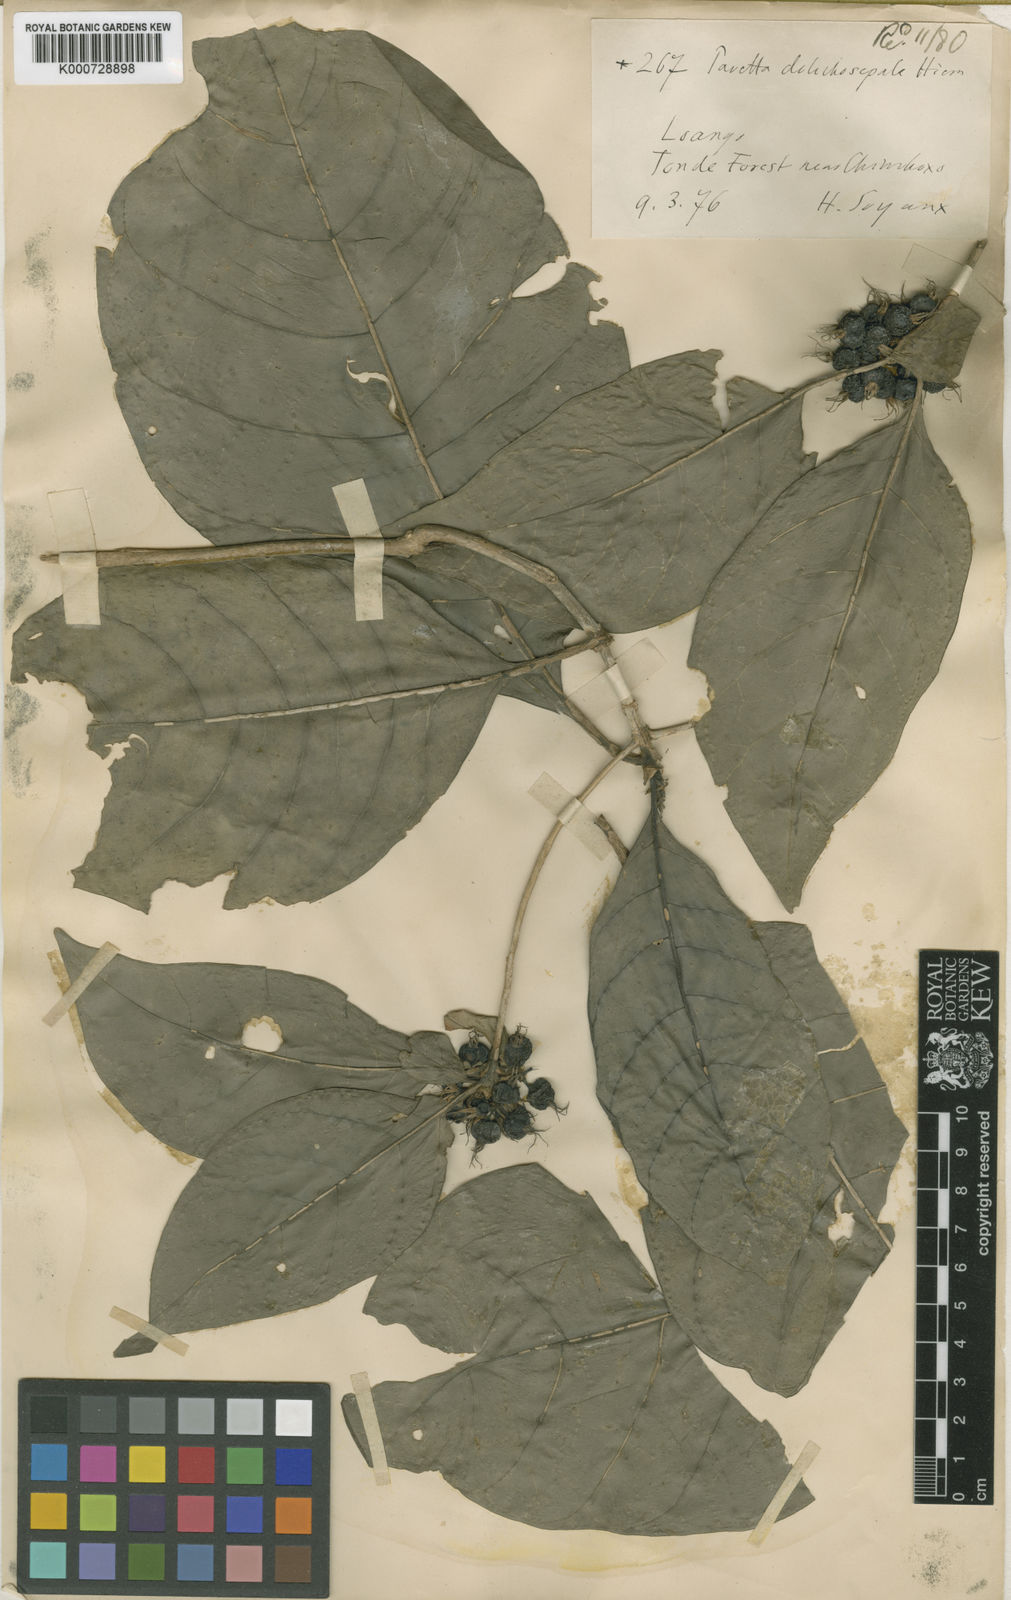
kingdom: Plantae
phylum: Tracheophyta
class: Magnoliopsida
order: Gentianales
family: Rubiaceae
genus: Pavetta
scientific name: Pavetta dolichosepala
